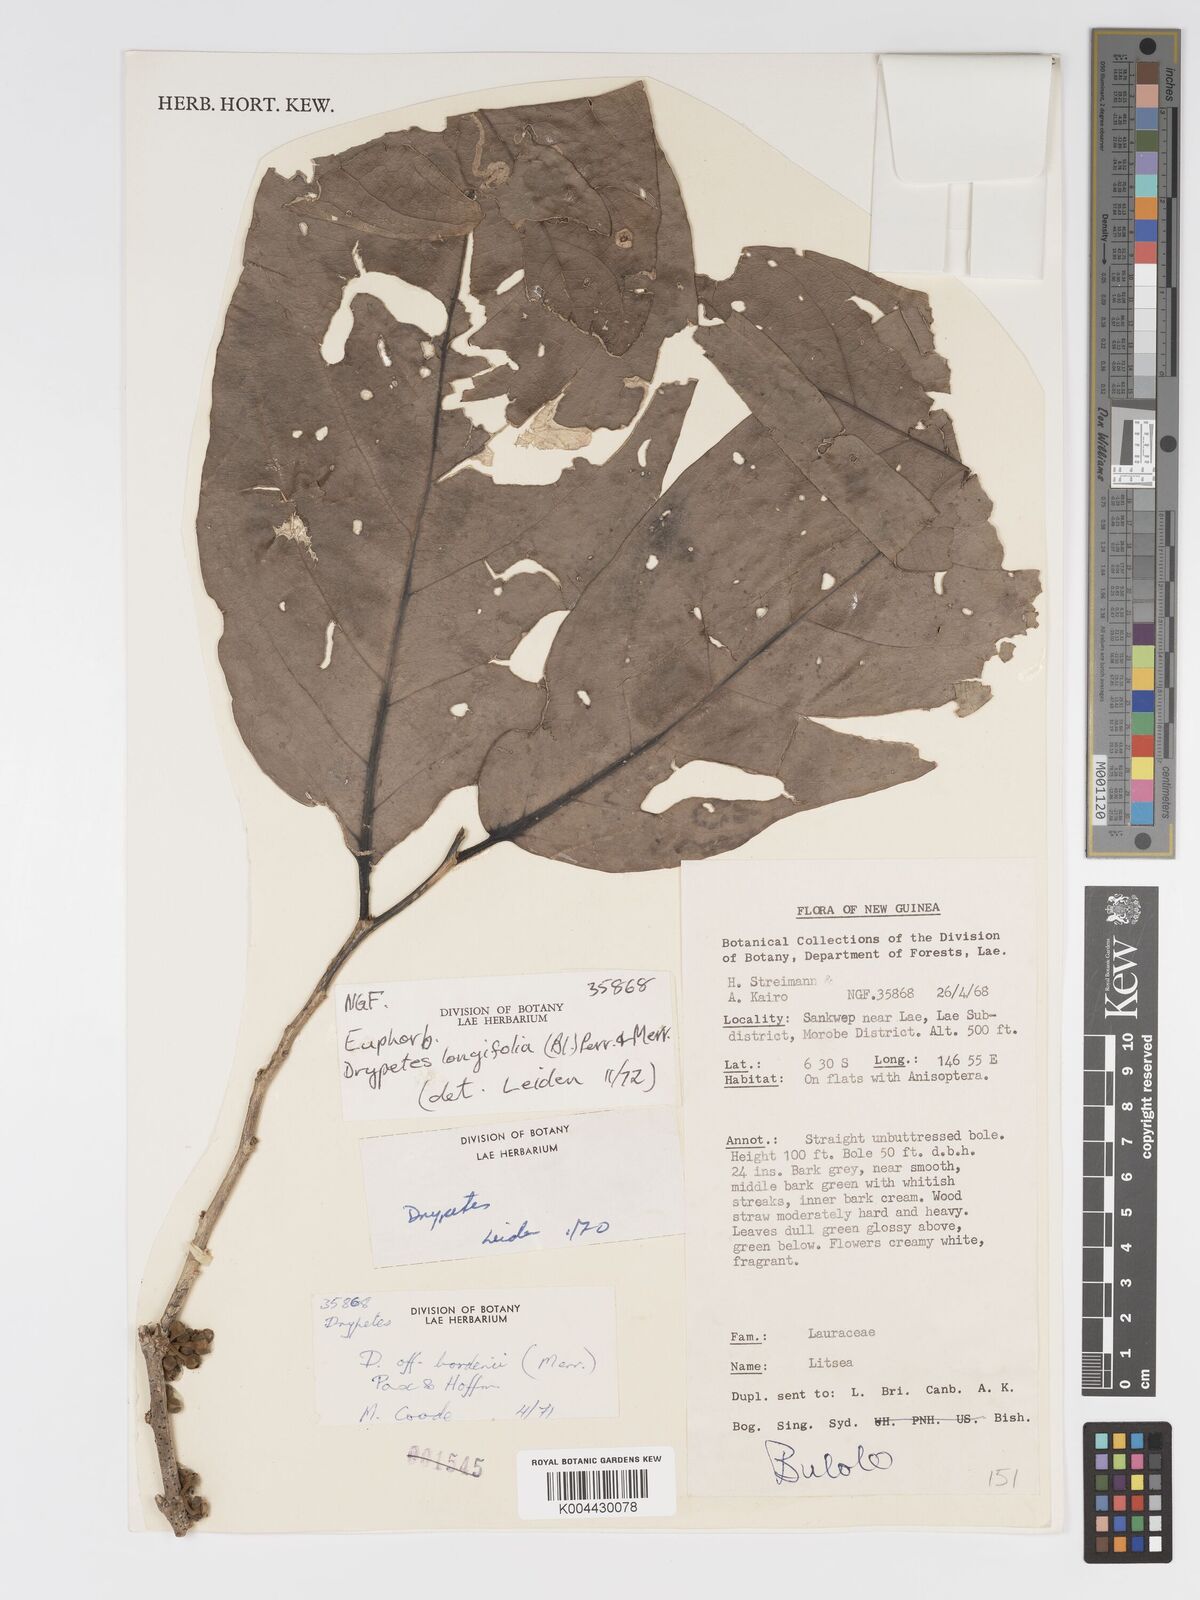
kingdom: Plantae
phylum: Tracheophyta
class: Magnoliopsida
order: Malpighiales
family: Putranjivaceae
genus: Drypetes
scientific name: Drypetes longifolia
